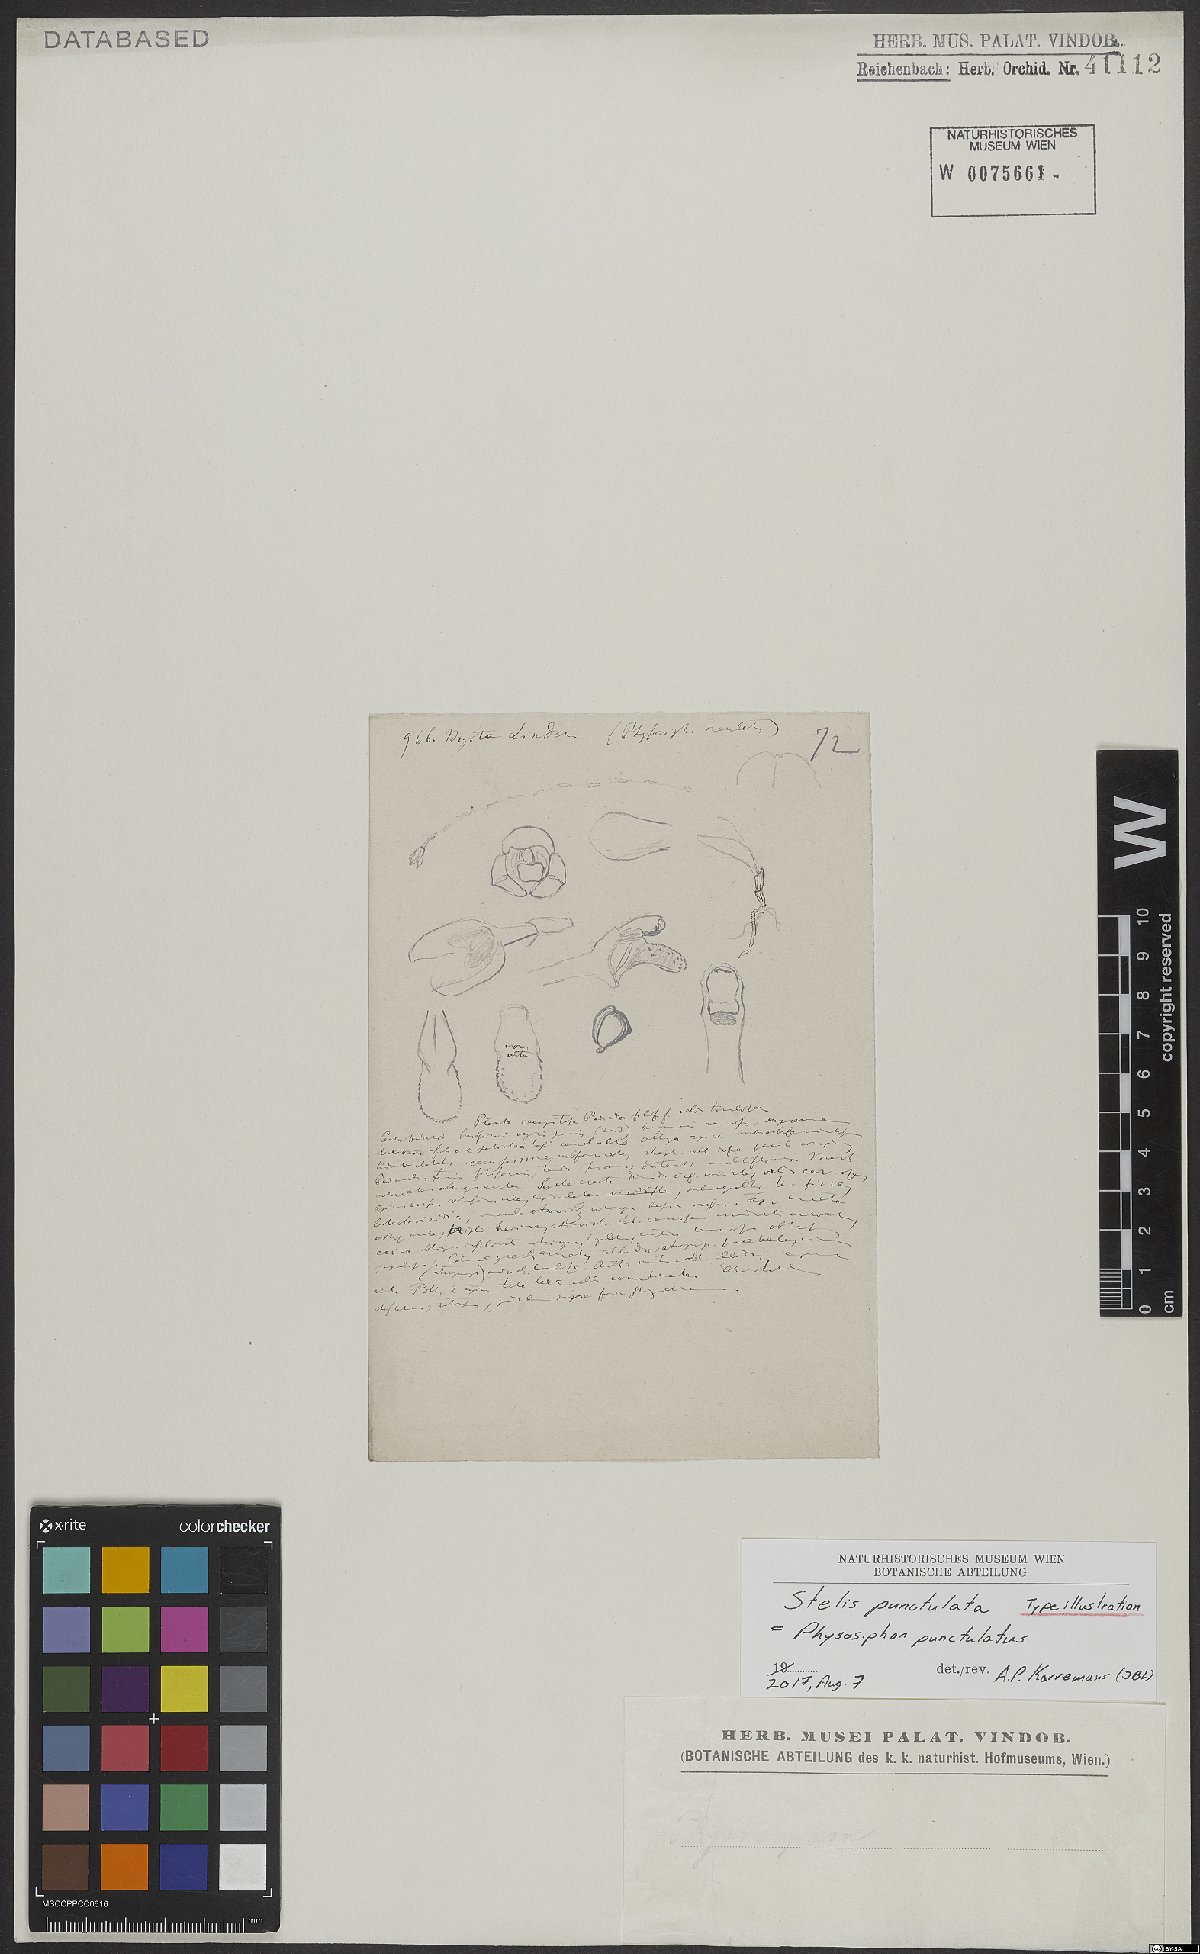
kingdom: Plantae
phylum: Tracheophyta
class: Liliopsida
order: Asparagales
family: Orchidaceae
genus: Stelis
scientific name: Stelis punctulata
